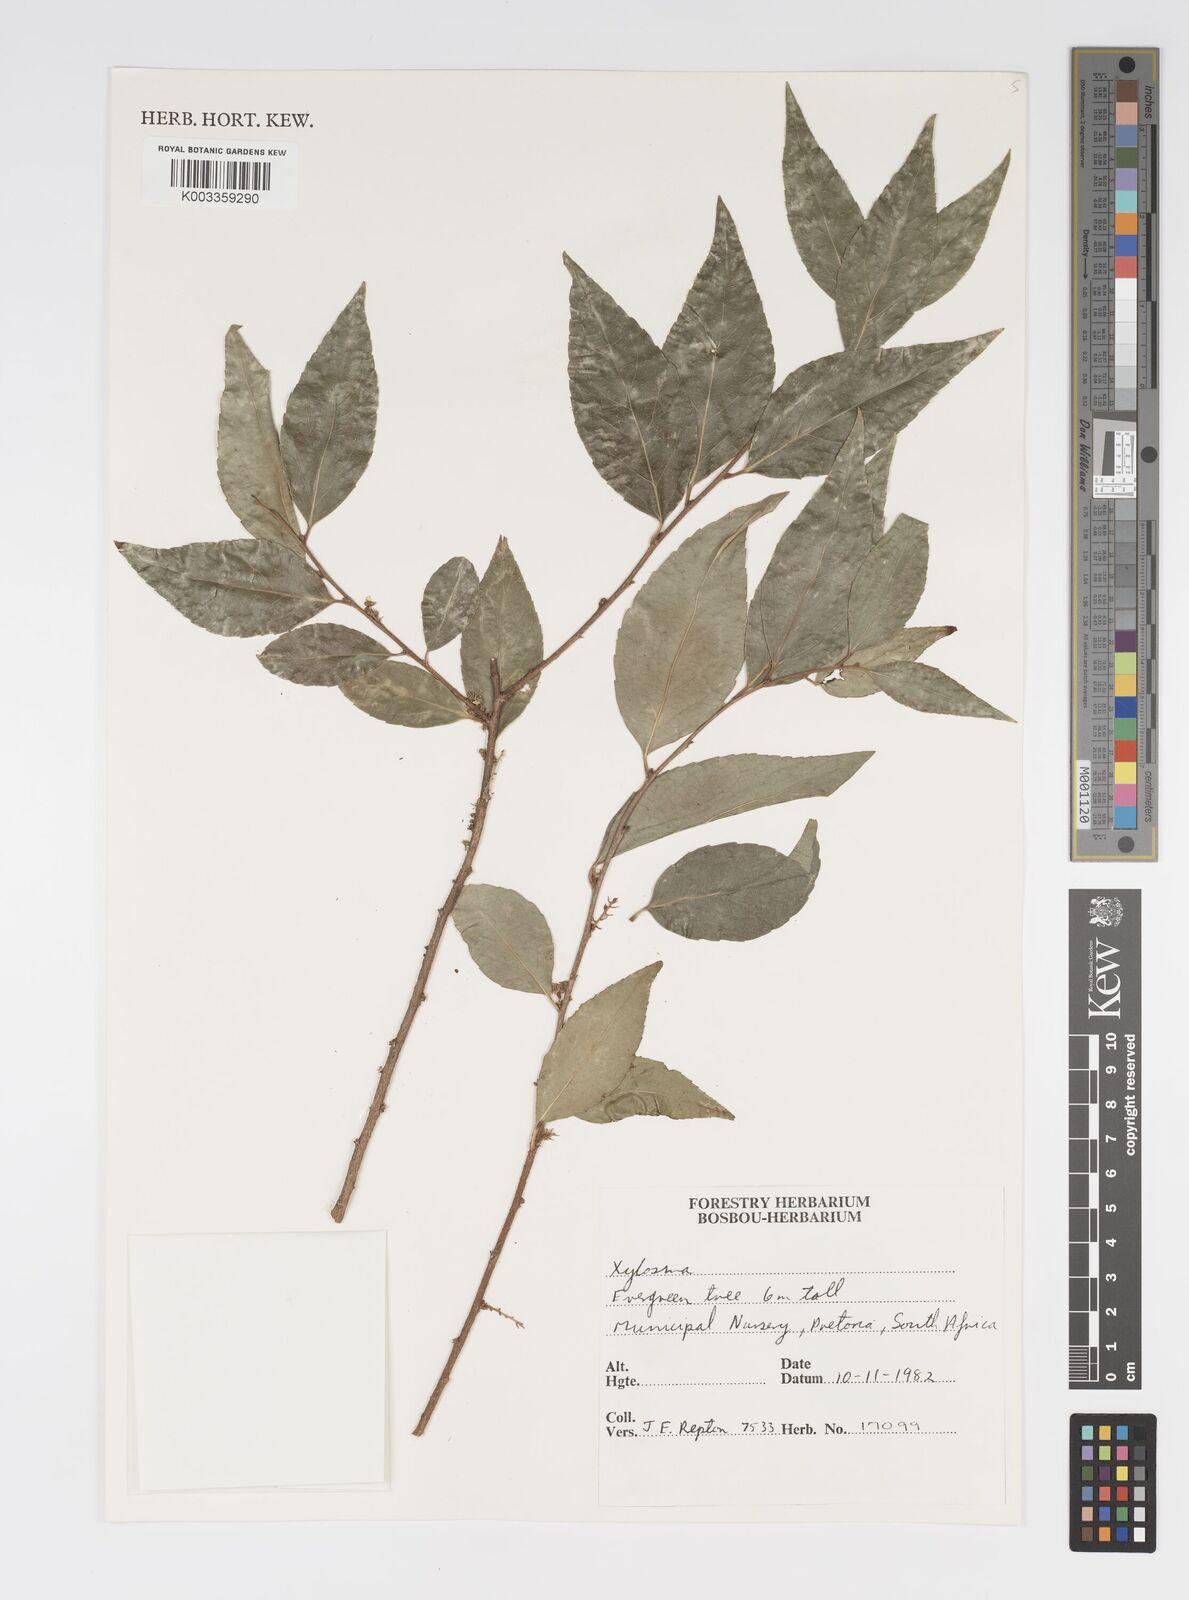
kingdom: Plantae
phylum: Tracheophyta
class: Magnoliopsida
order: Malpighiales
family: Salicaceae
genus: Xylosma
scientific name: Xylosma
